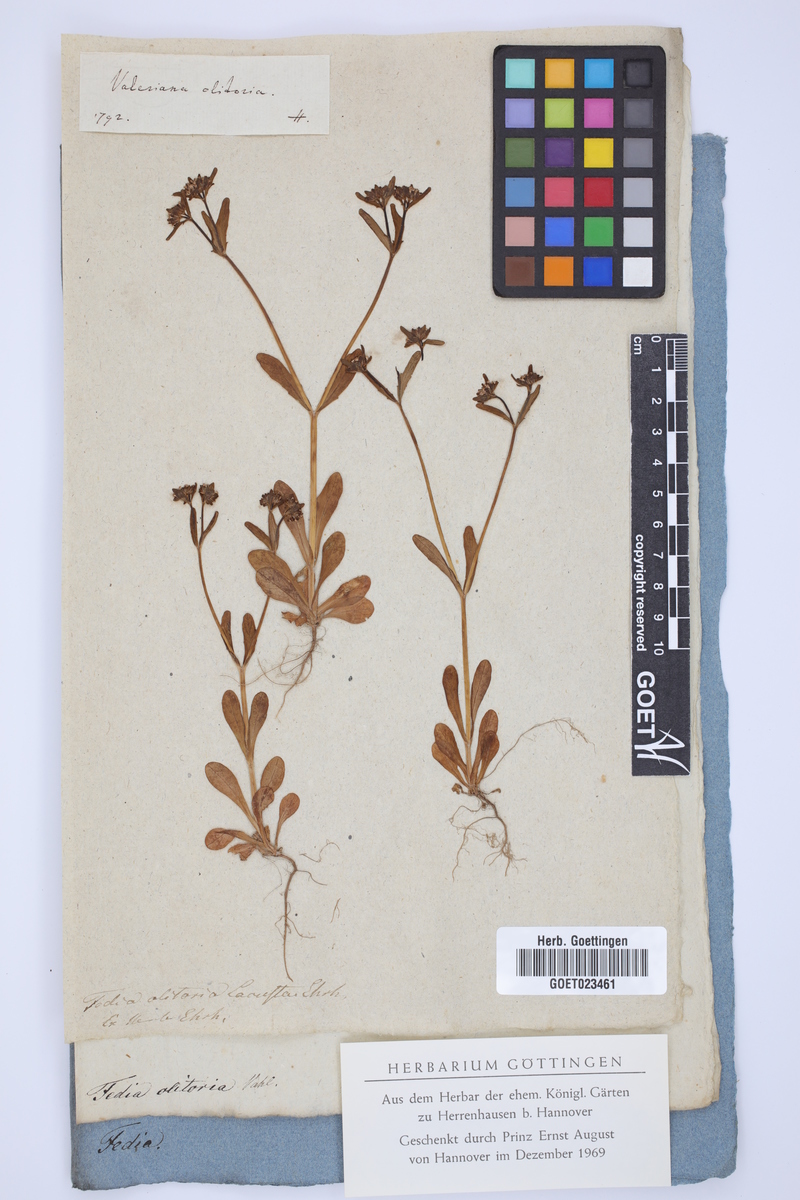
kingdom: Plantae
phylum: Tracheophyta
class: Magnoliopsida
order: Dipsacales
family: Caprifoliaceae
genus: Valerianella
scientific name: Valerianella locusta
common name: Common cornsalad
